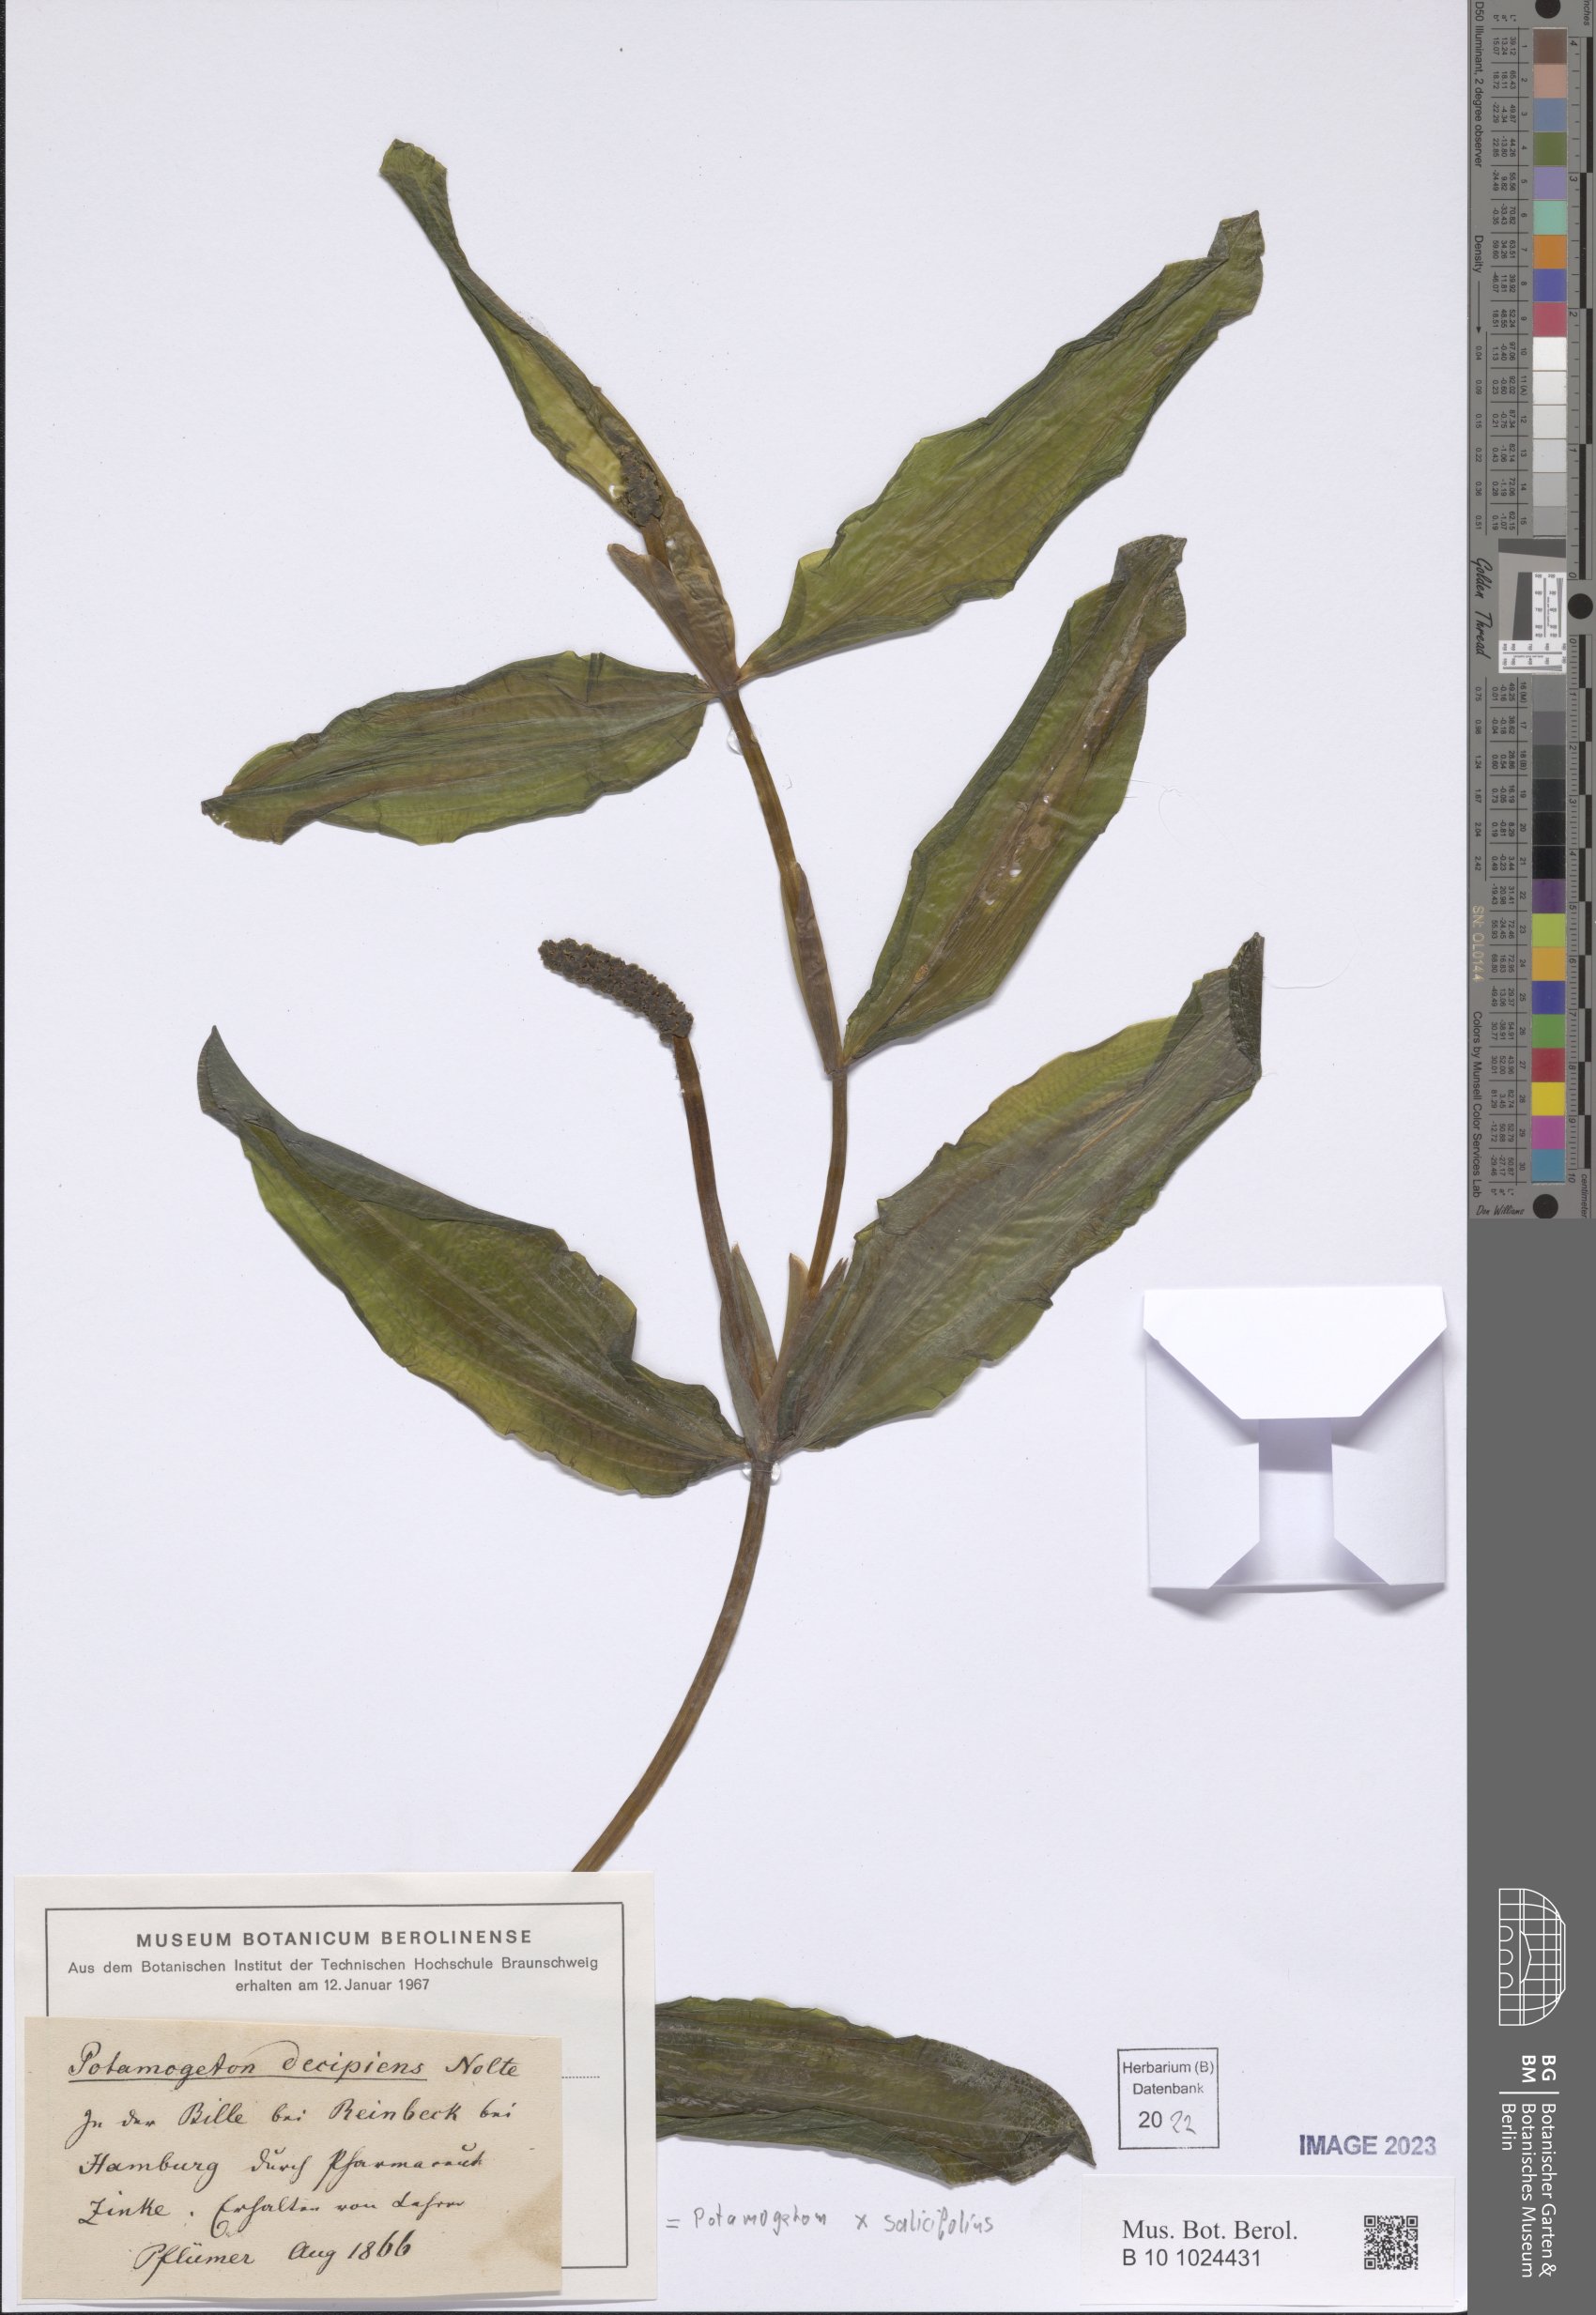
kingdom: Plantae
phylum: Tracheophyta
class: Liliopsida
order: Alismatales
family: Potamogetonaceae
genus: Potamogeton
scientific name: Potamogeton salicifolius
